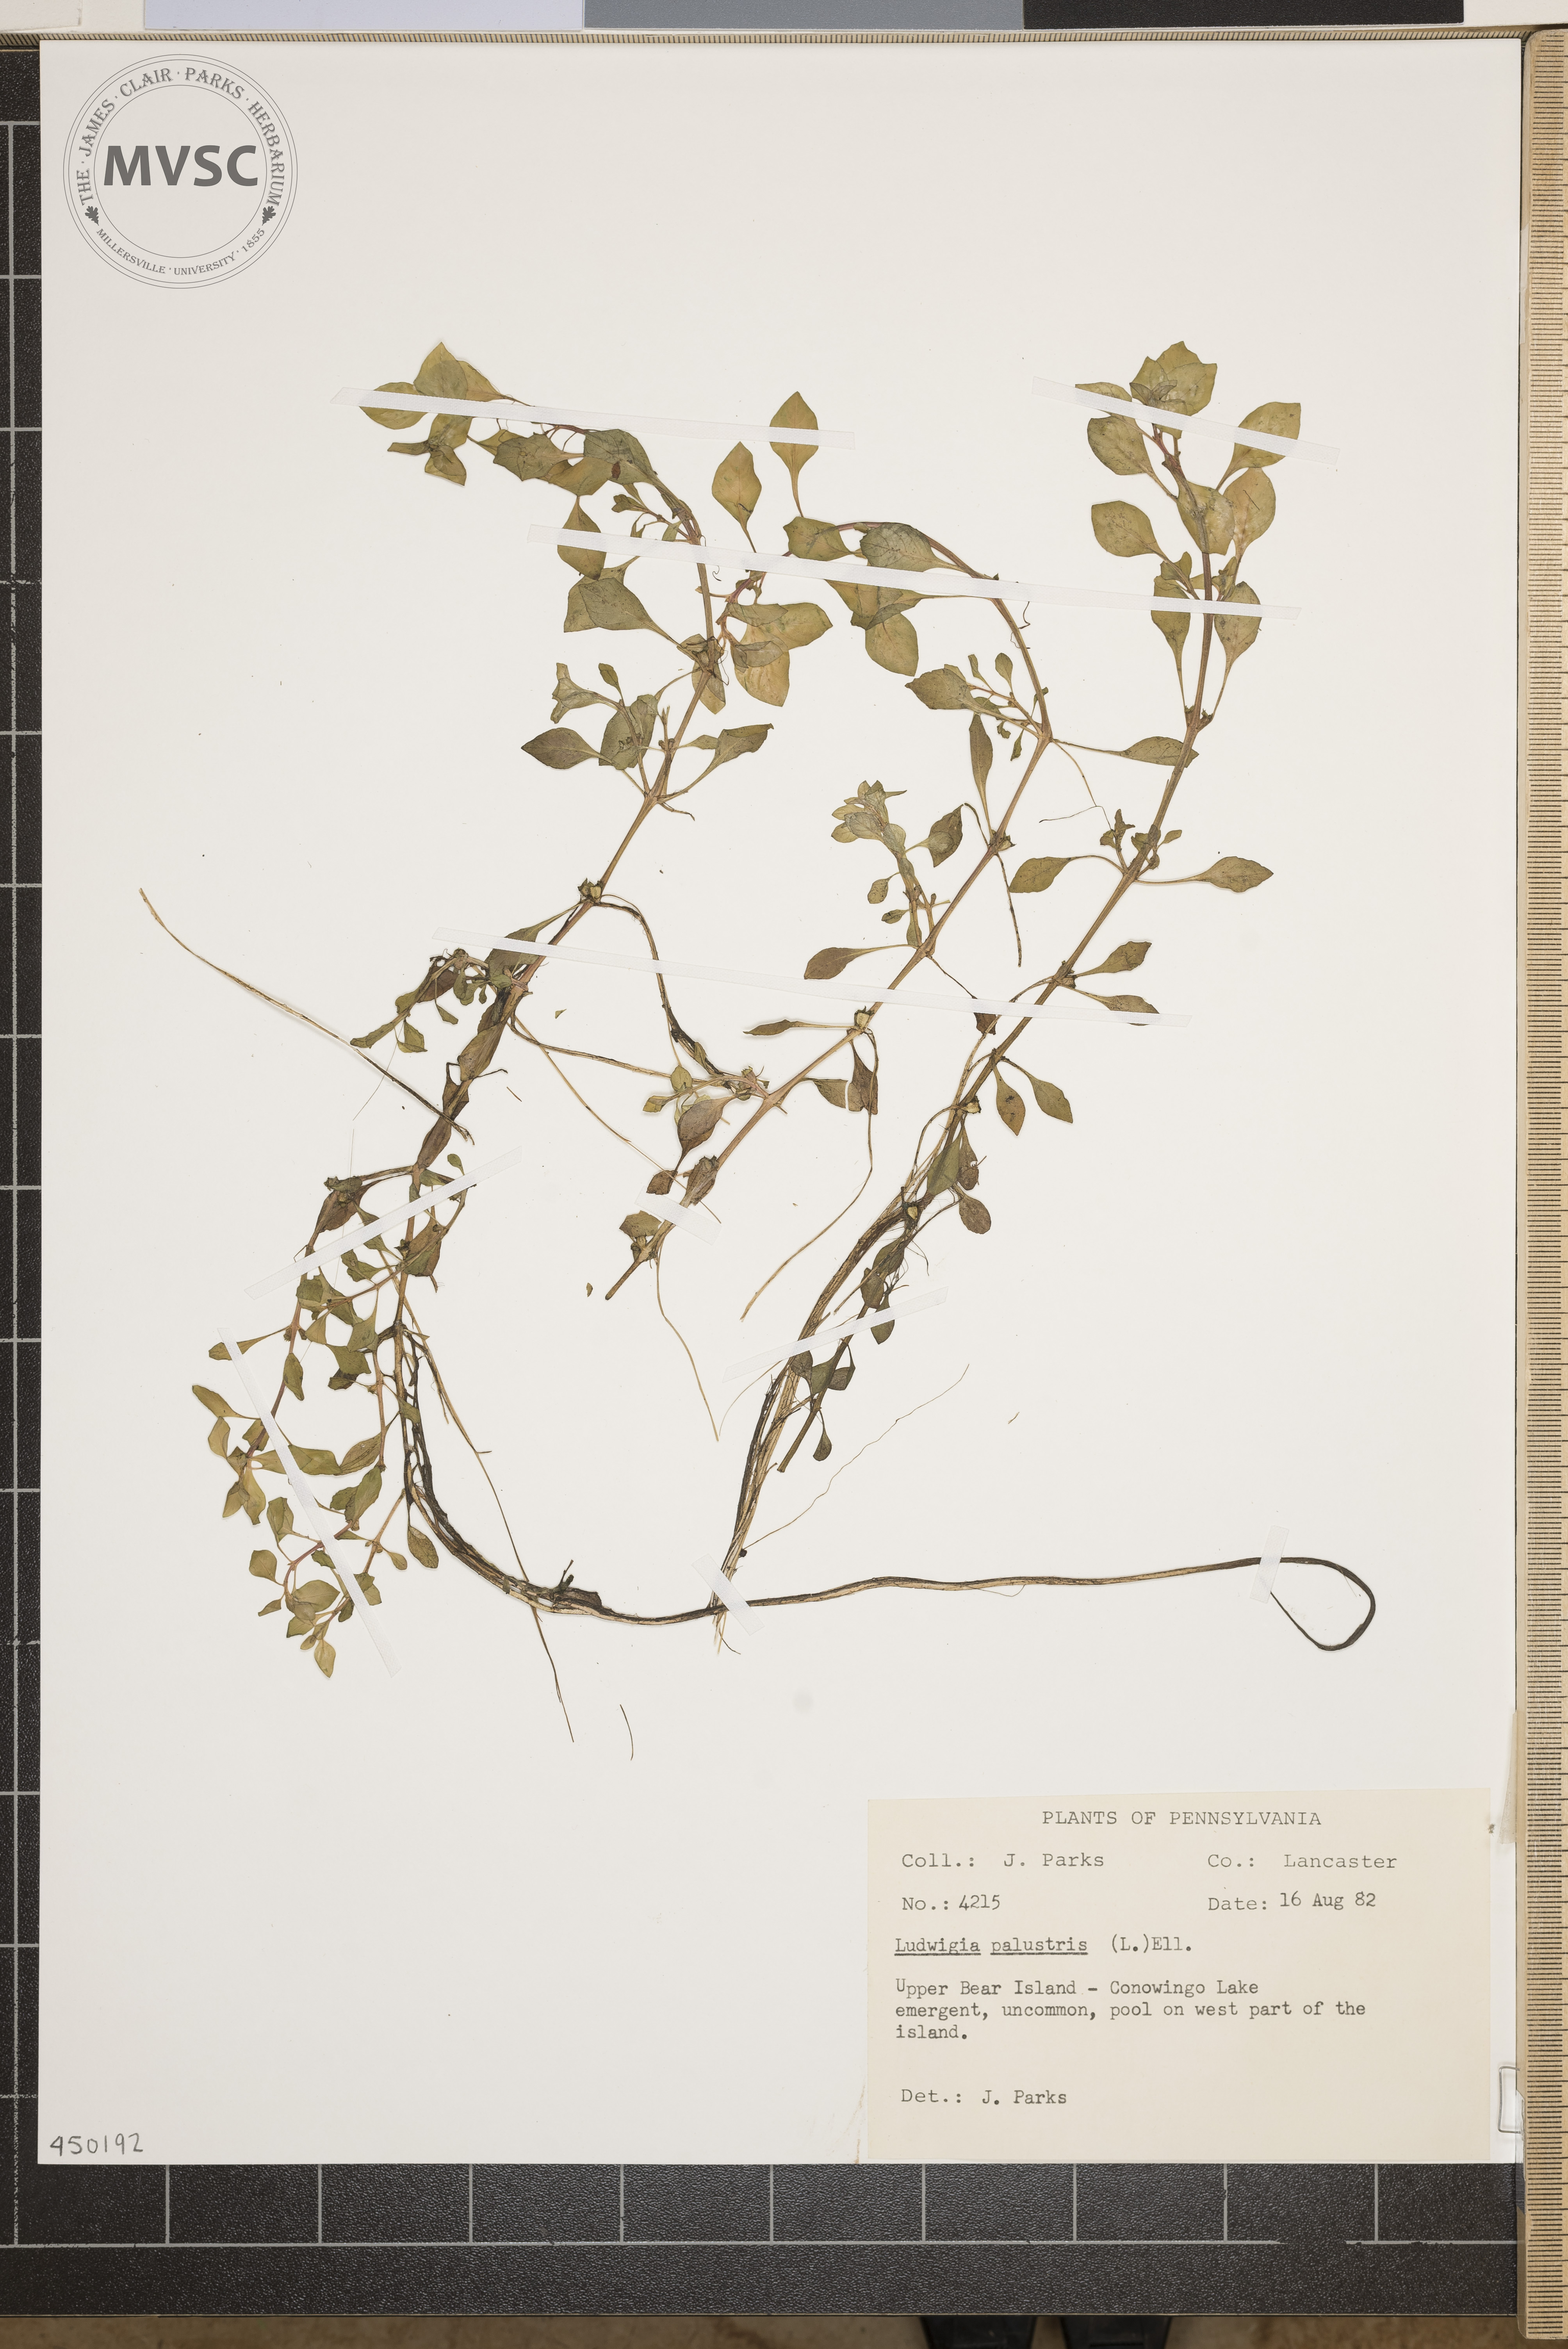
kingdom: Plantae
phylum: Tracheophyta
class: Magnoliopsida
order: Myrtales
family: Onagraceae
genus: Ludwigia
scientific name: Ludwigia palustris
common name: Hampshire-purslane
